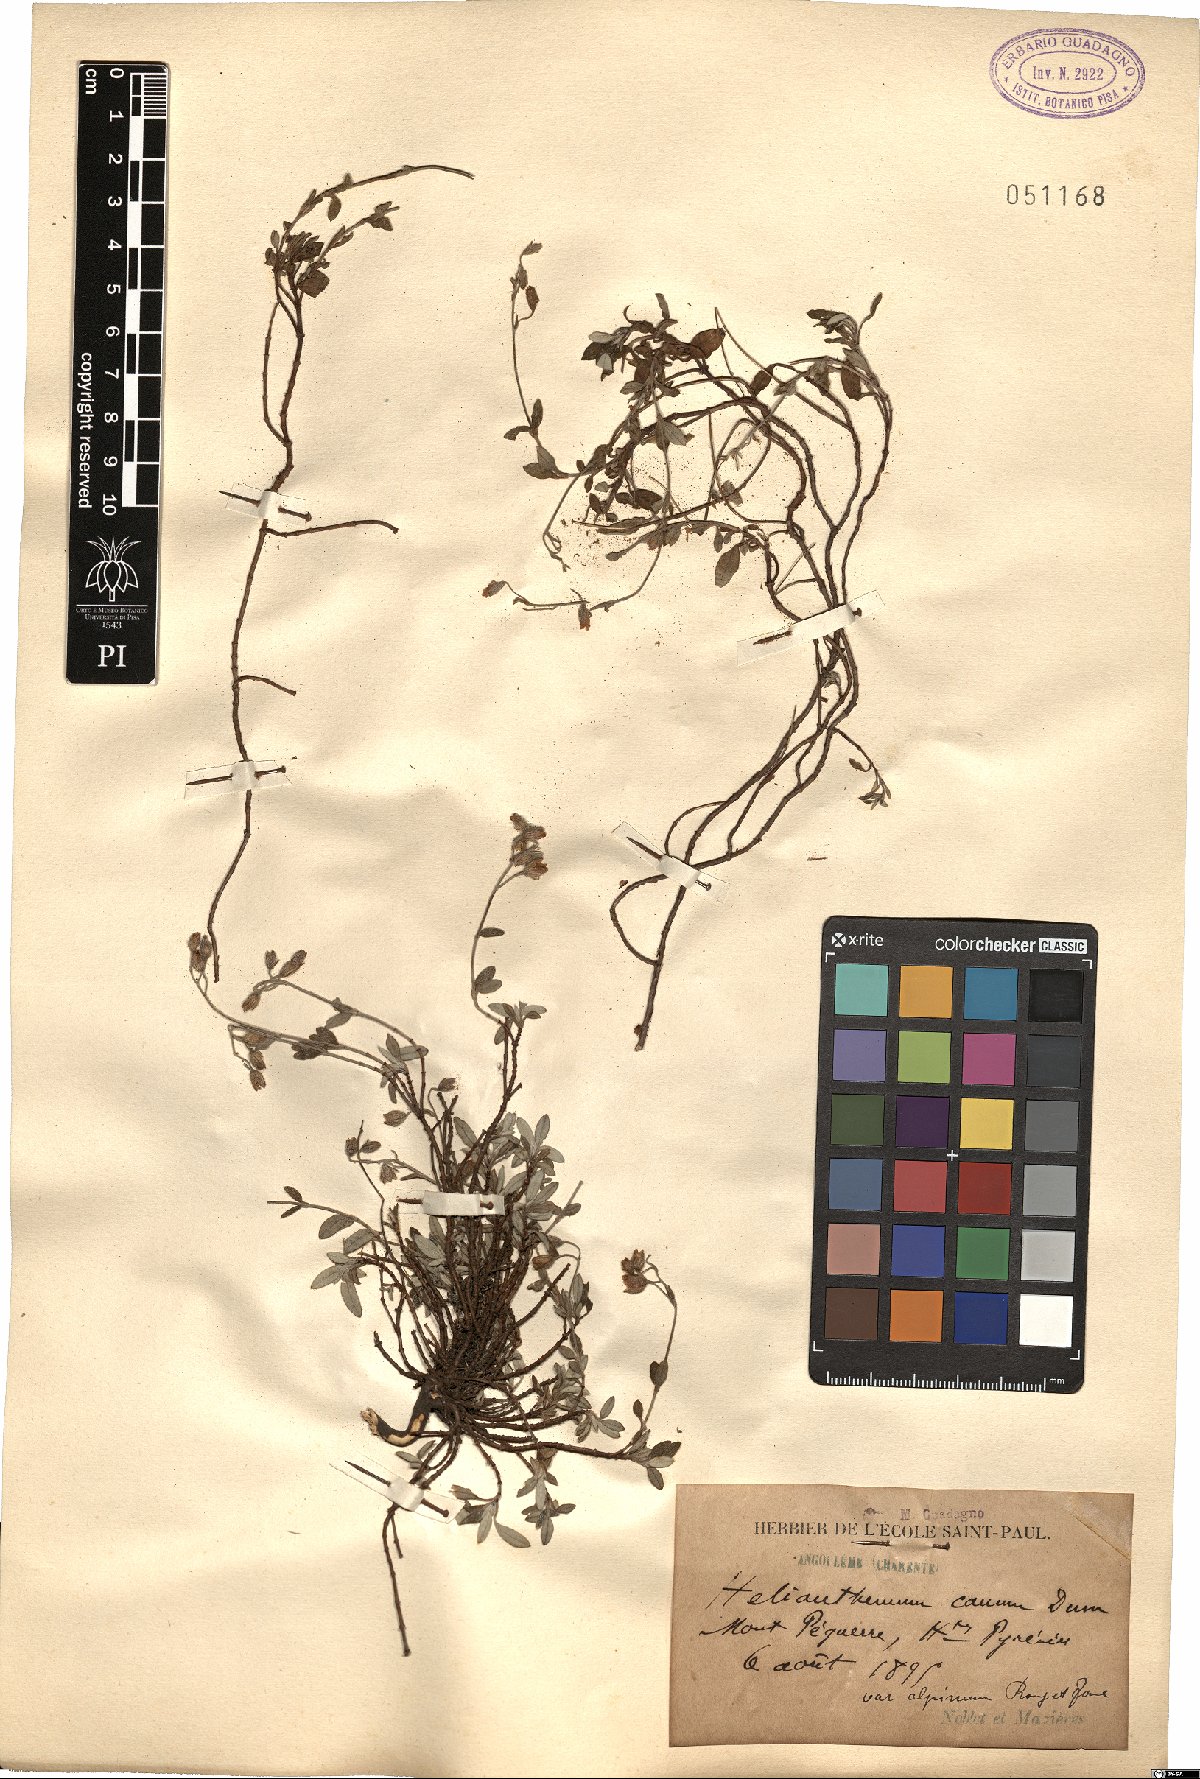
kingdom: Plantae
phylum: Tracheophyta
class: Magnoliopsida
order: Malvales
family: Cistaceae
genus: Helianthemum
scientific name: Helianthemum
